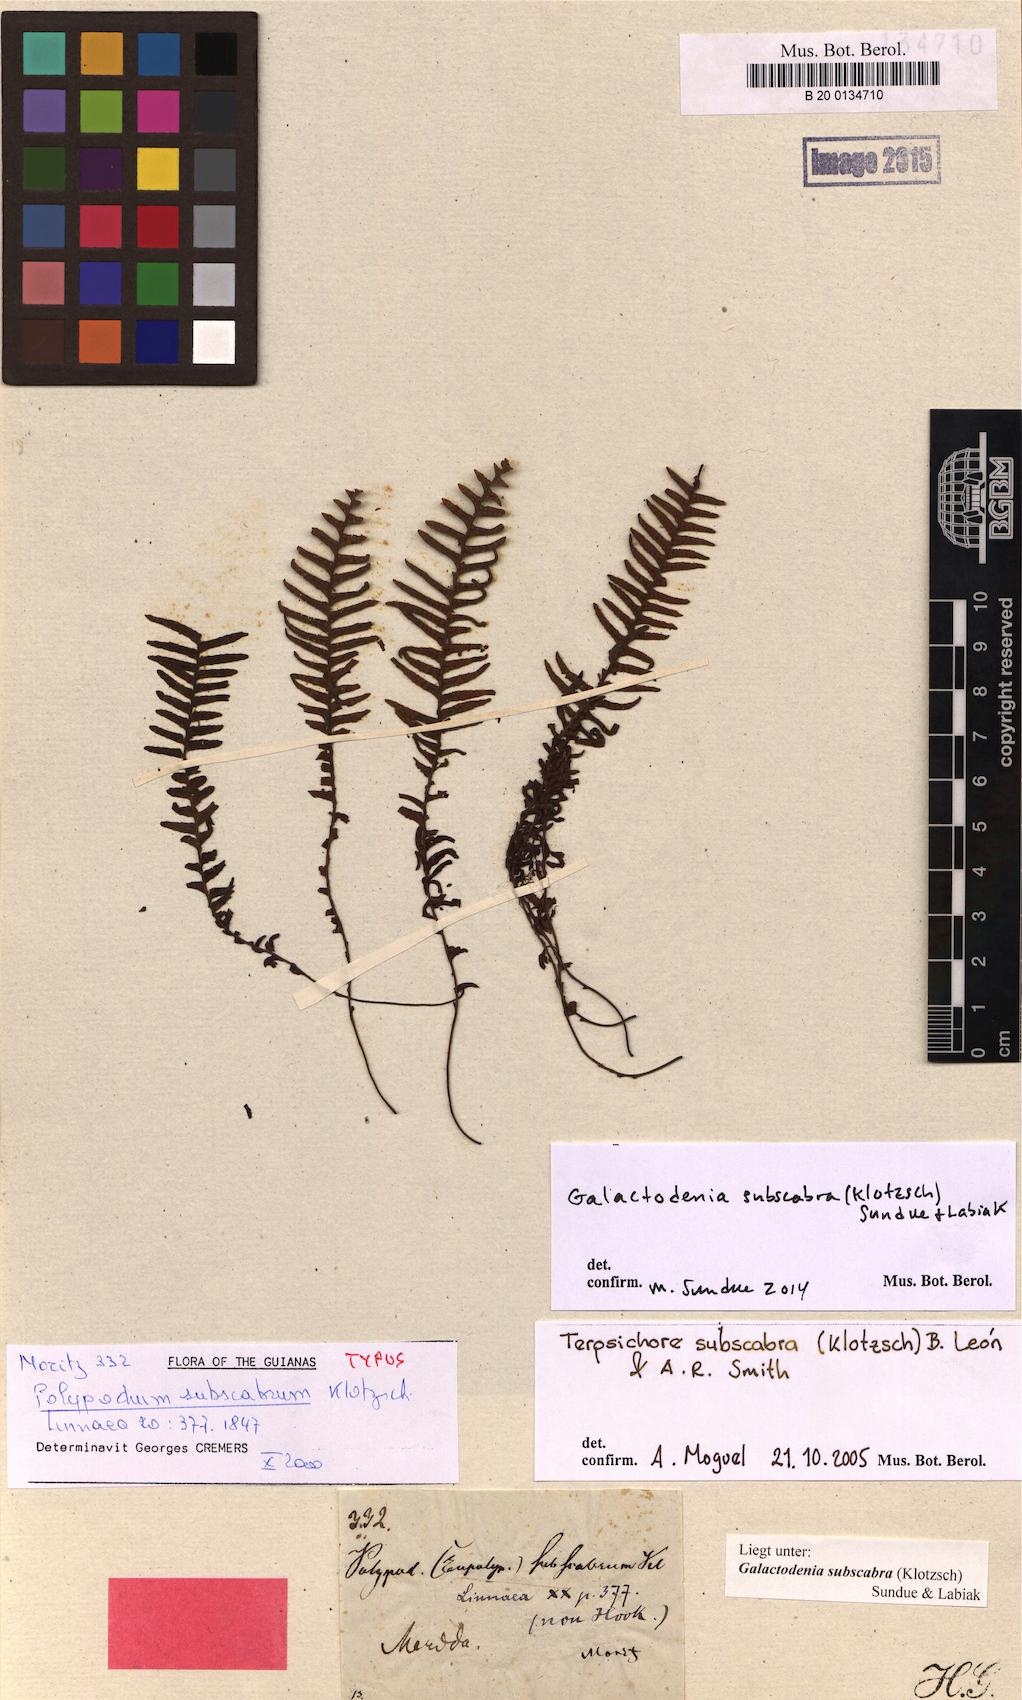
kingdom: Plantae
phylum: Tracheophyta
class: Polypodiopsida
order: Polypodiales
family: Polypodiaceae
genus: Galactodenia
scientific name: Galactodenia subscabra
